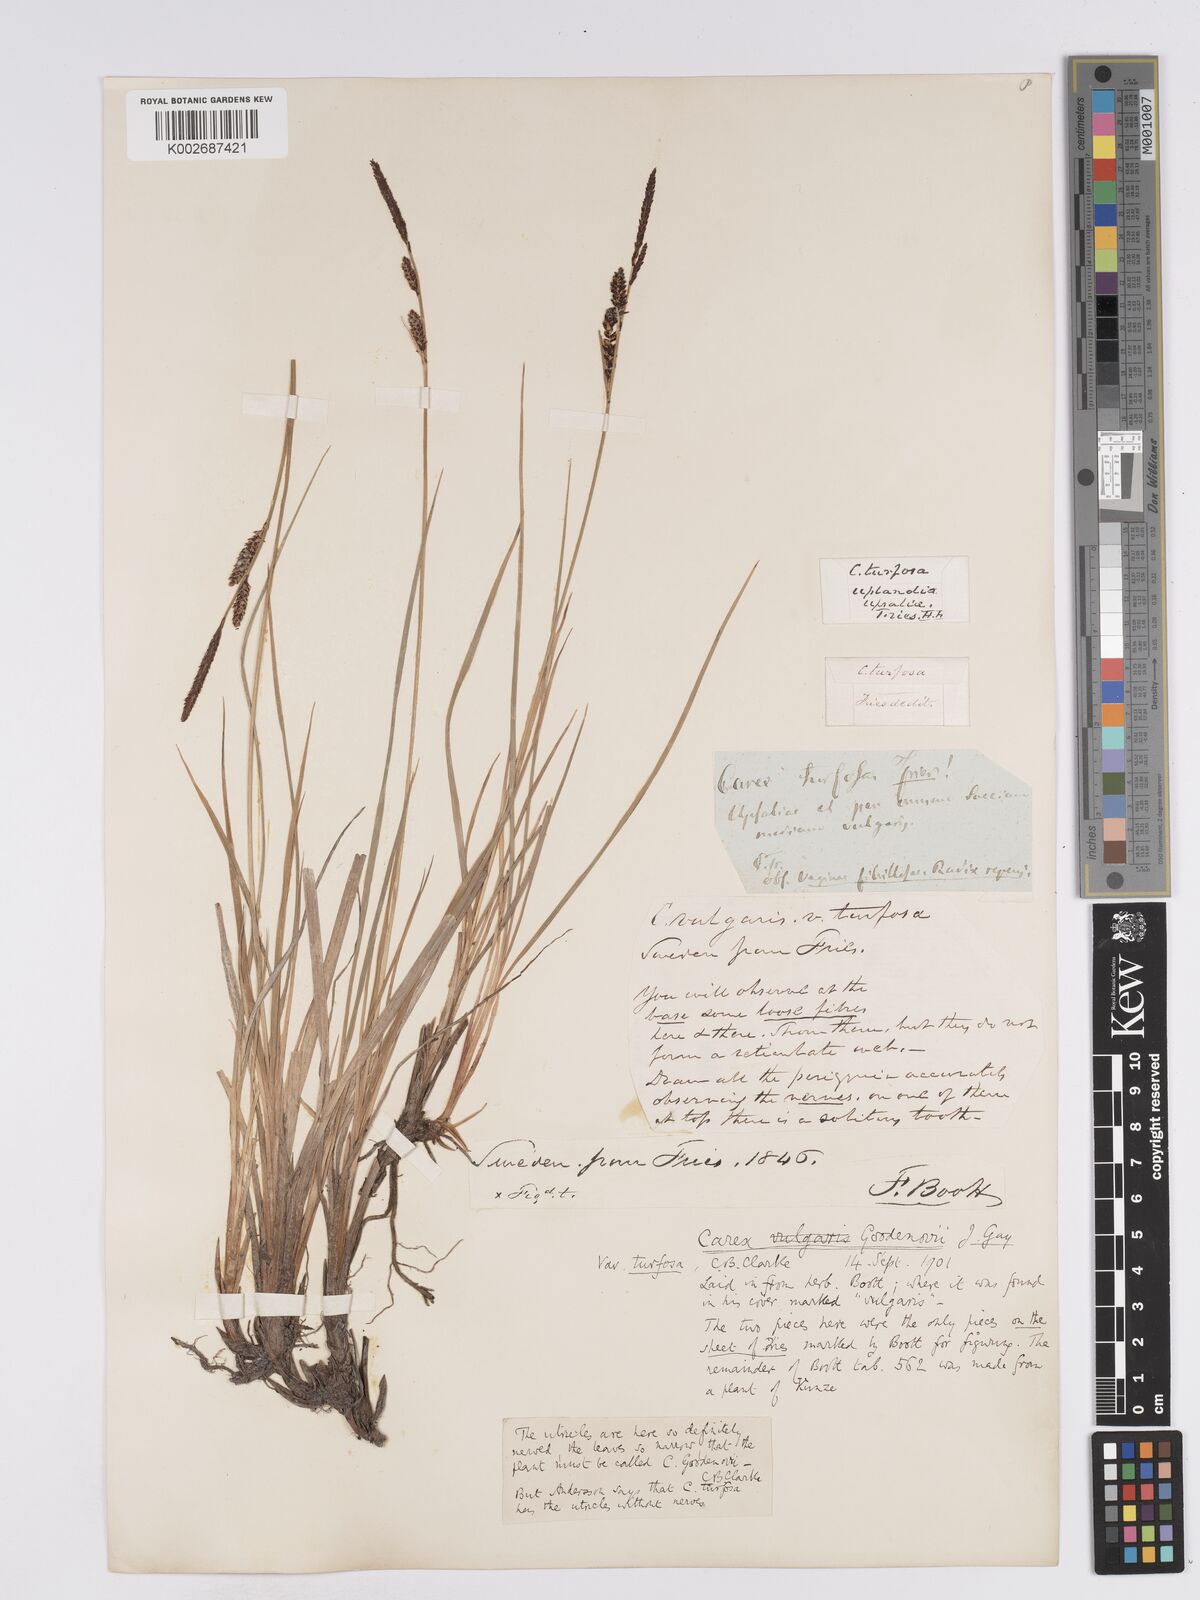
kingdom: Plantae
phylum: Tracheophyta
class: Liliopsida
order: Poales
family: Cyperaceae
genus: Carex
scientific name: Carex nigra
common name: Common sedge
